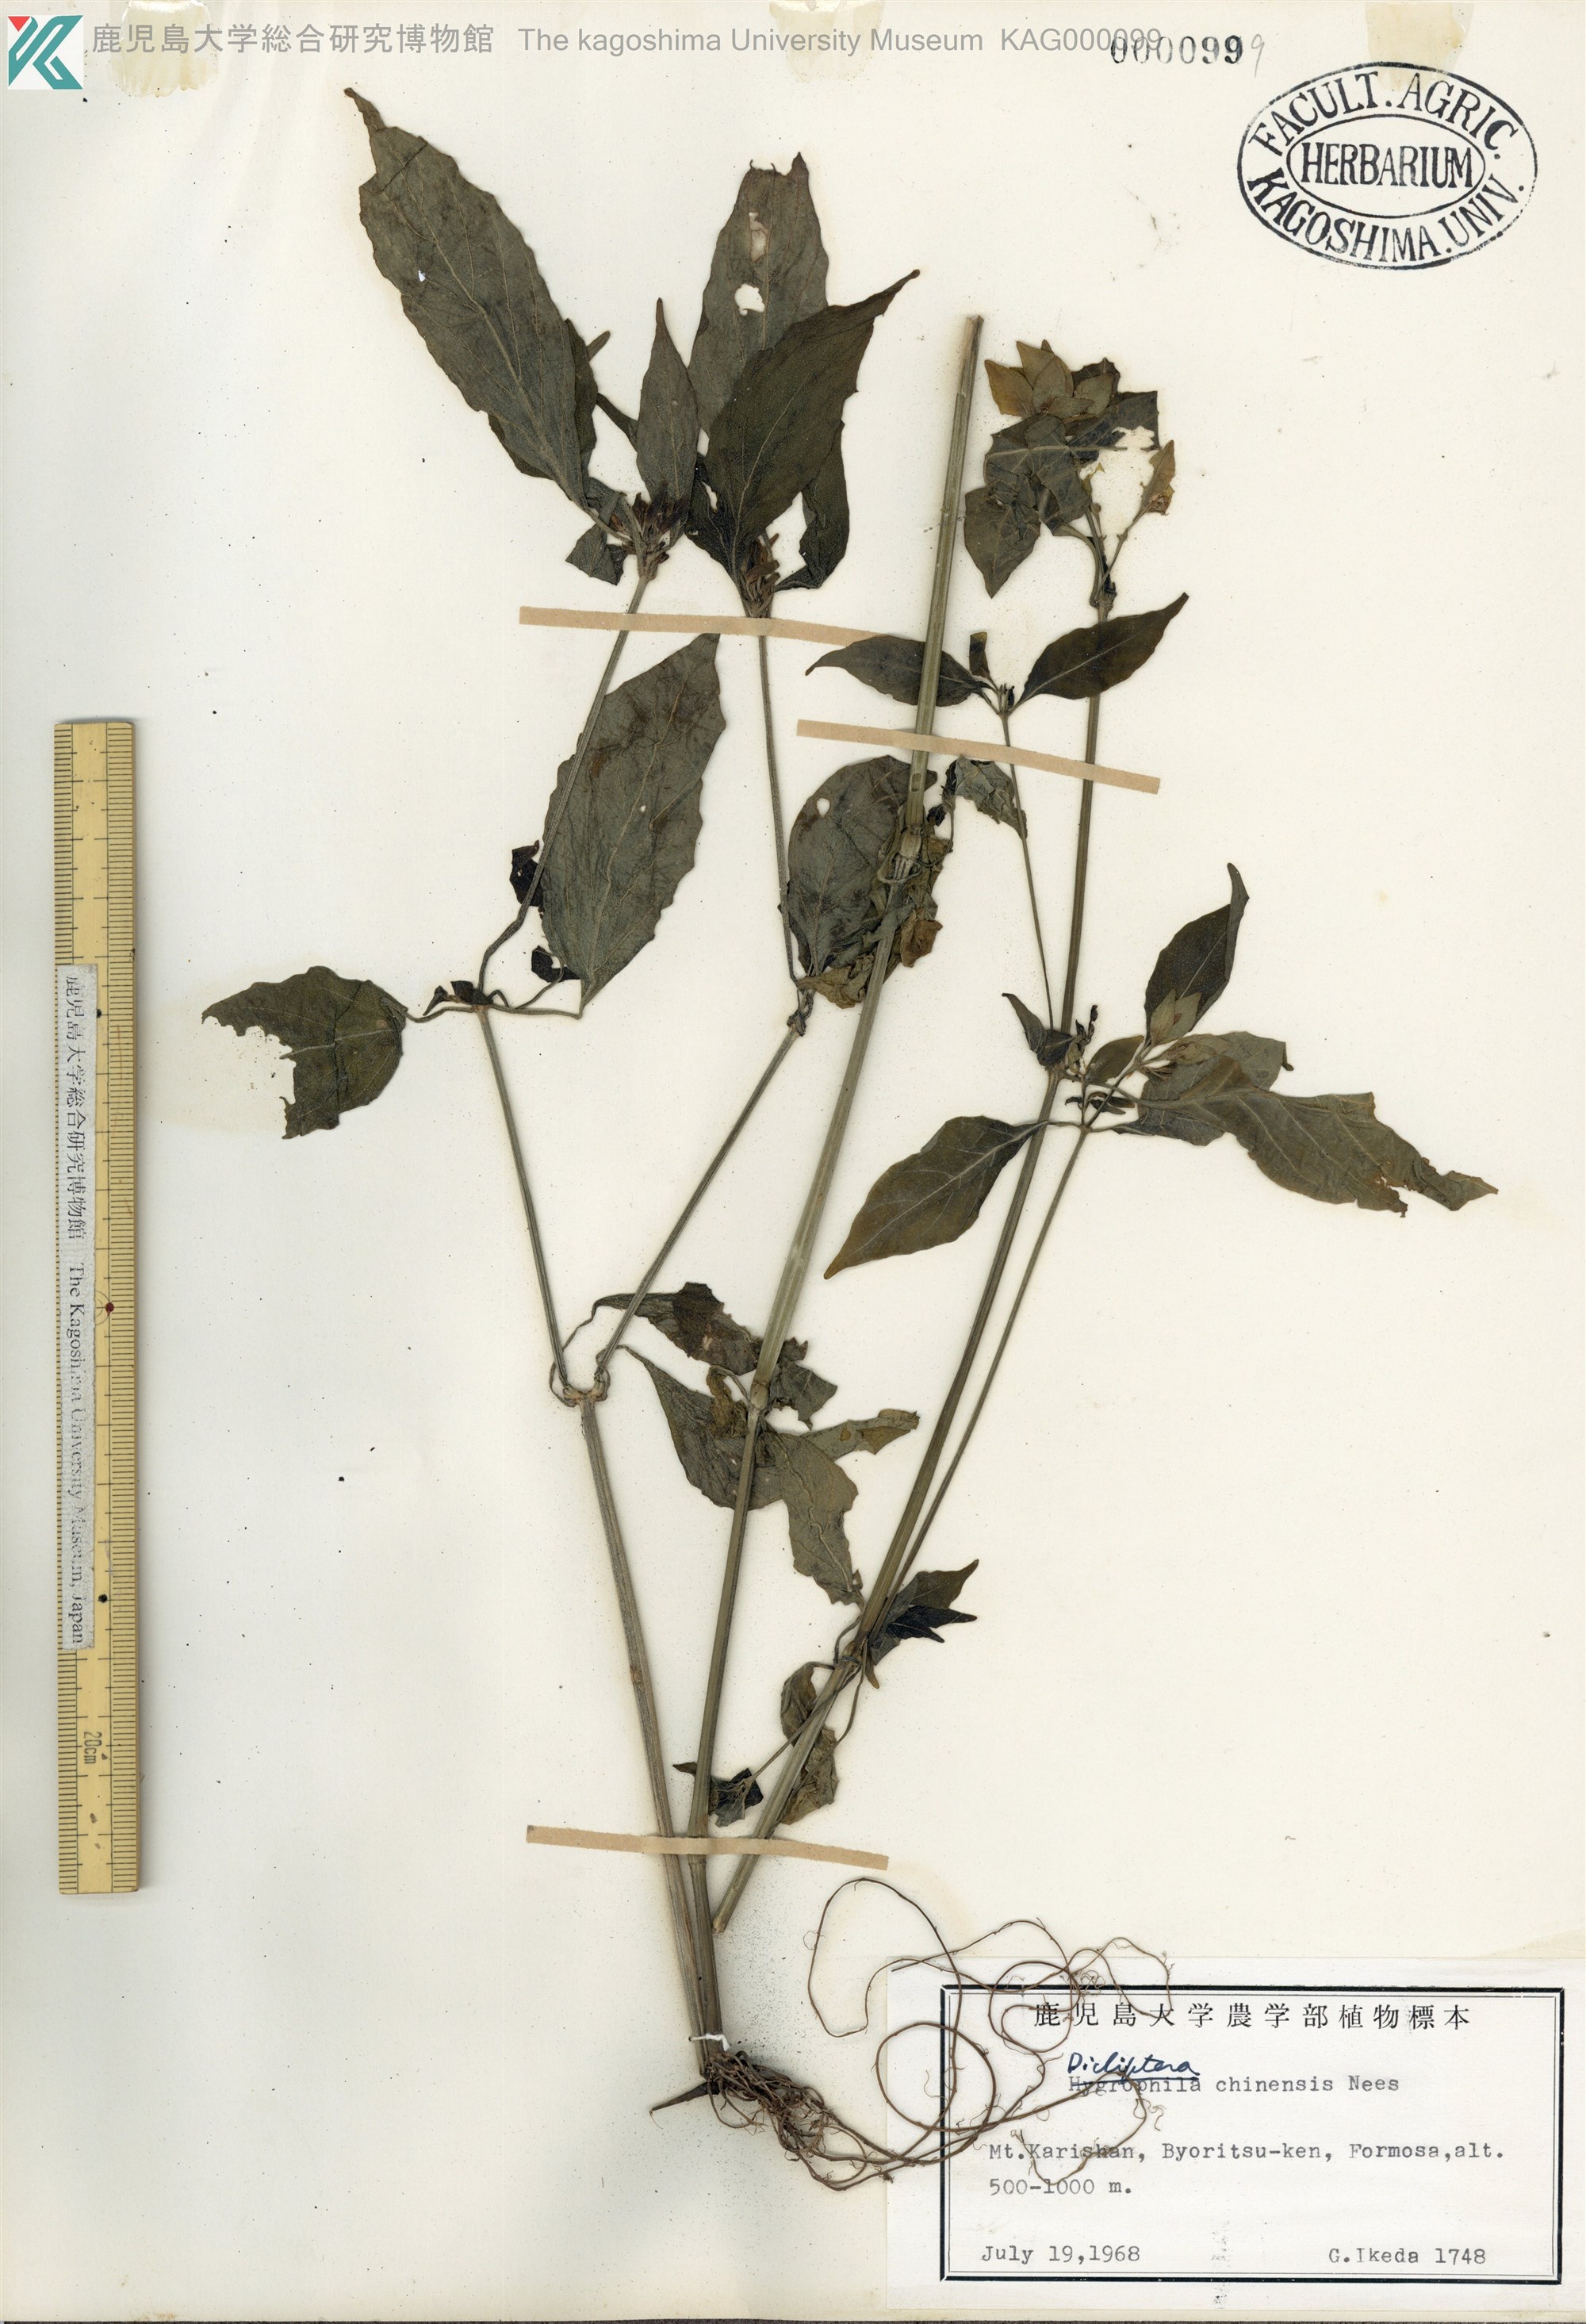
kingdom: Plantae
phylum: Tracheophyta
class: Magnoliopsida
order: Lamiales
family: Acanthaceae
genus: Dicliptera
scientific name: Dicliptera chinensis
